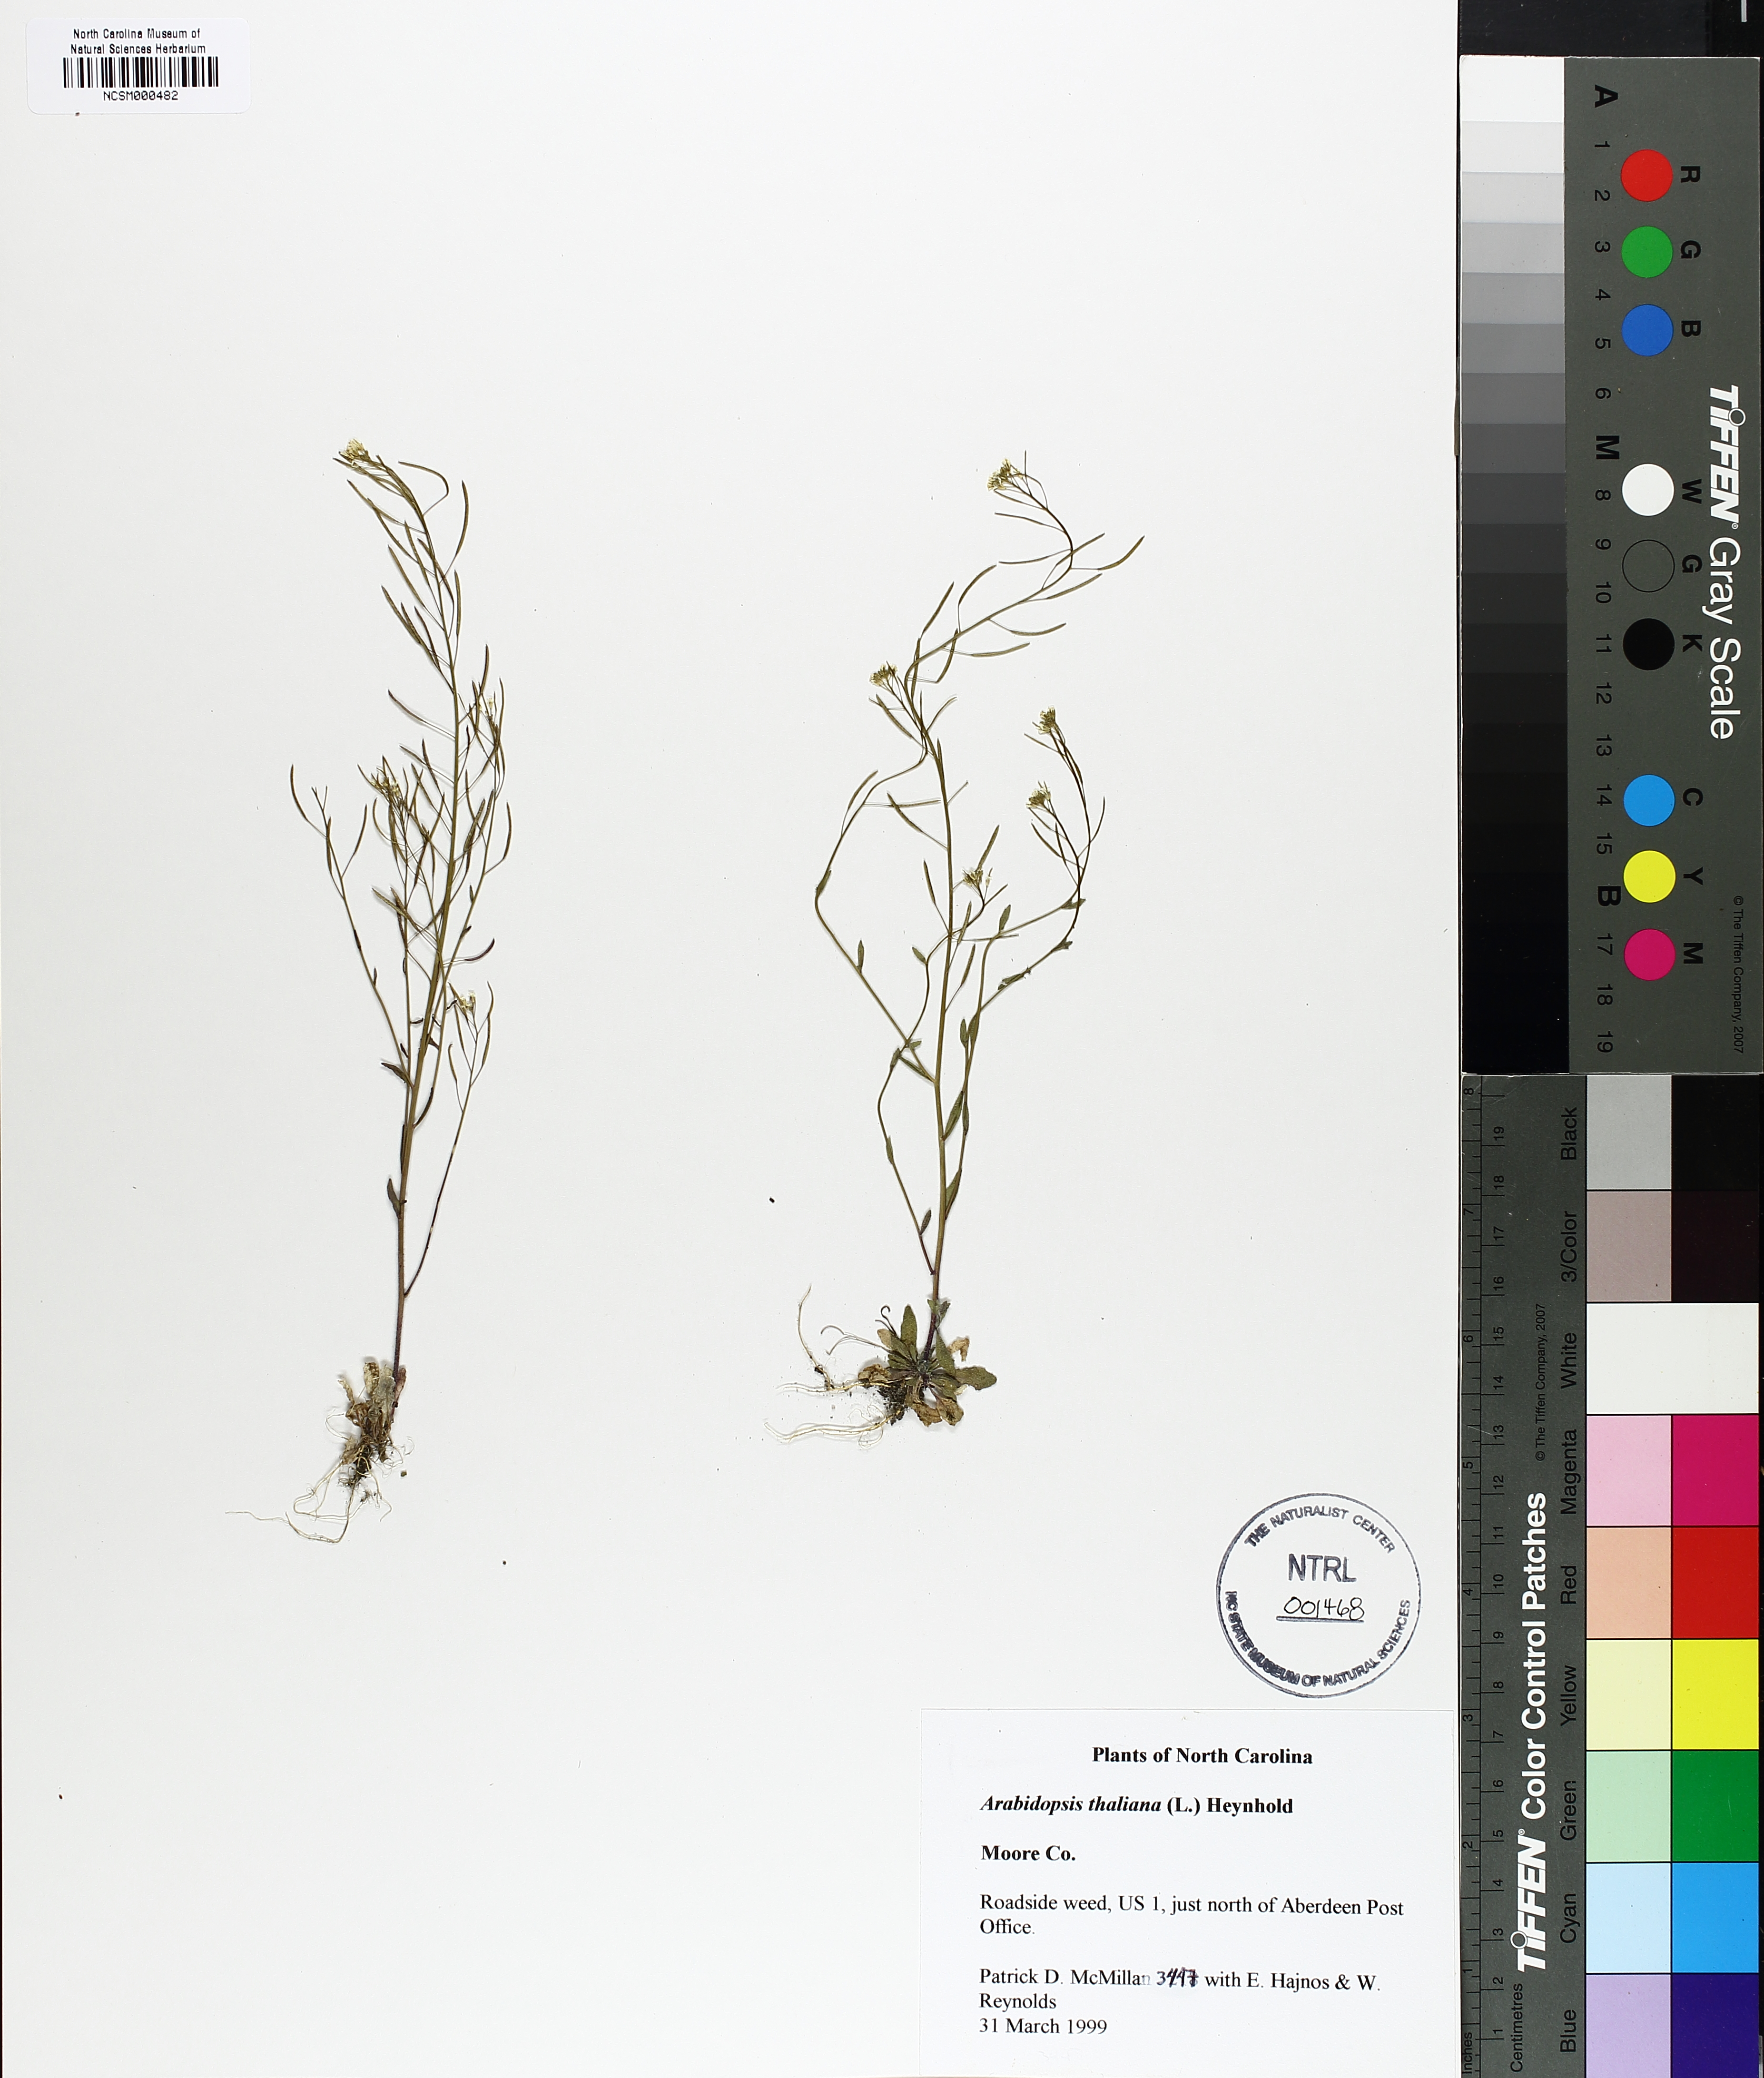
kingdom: Plantae
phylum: Tracheophyta
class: Magnoliopsida
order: Brassicales
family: Brassicaceae
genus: Arabidopsis
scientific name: Arabidopsis thaliana
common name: Thale cress
